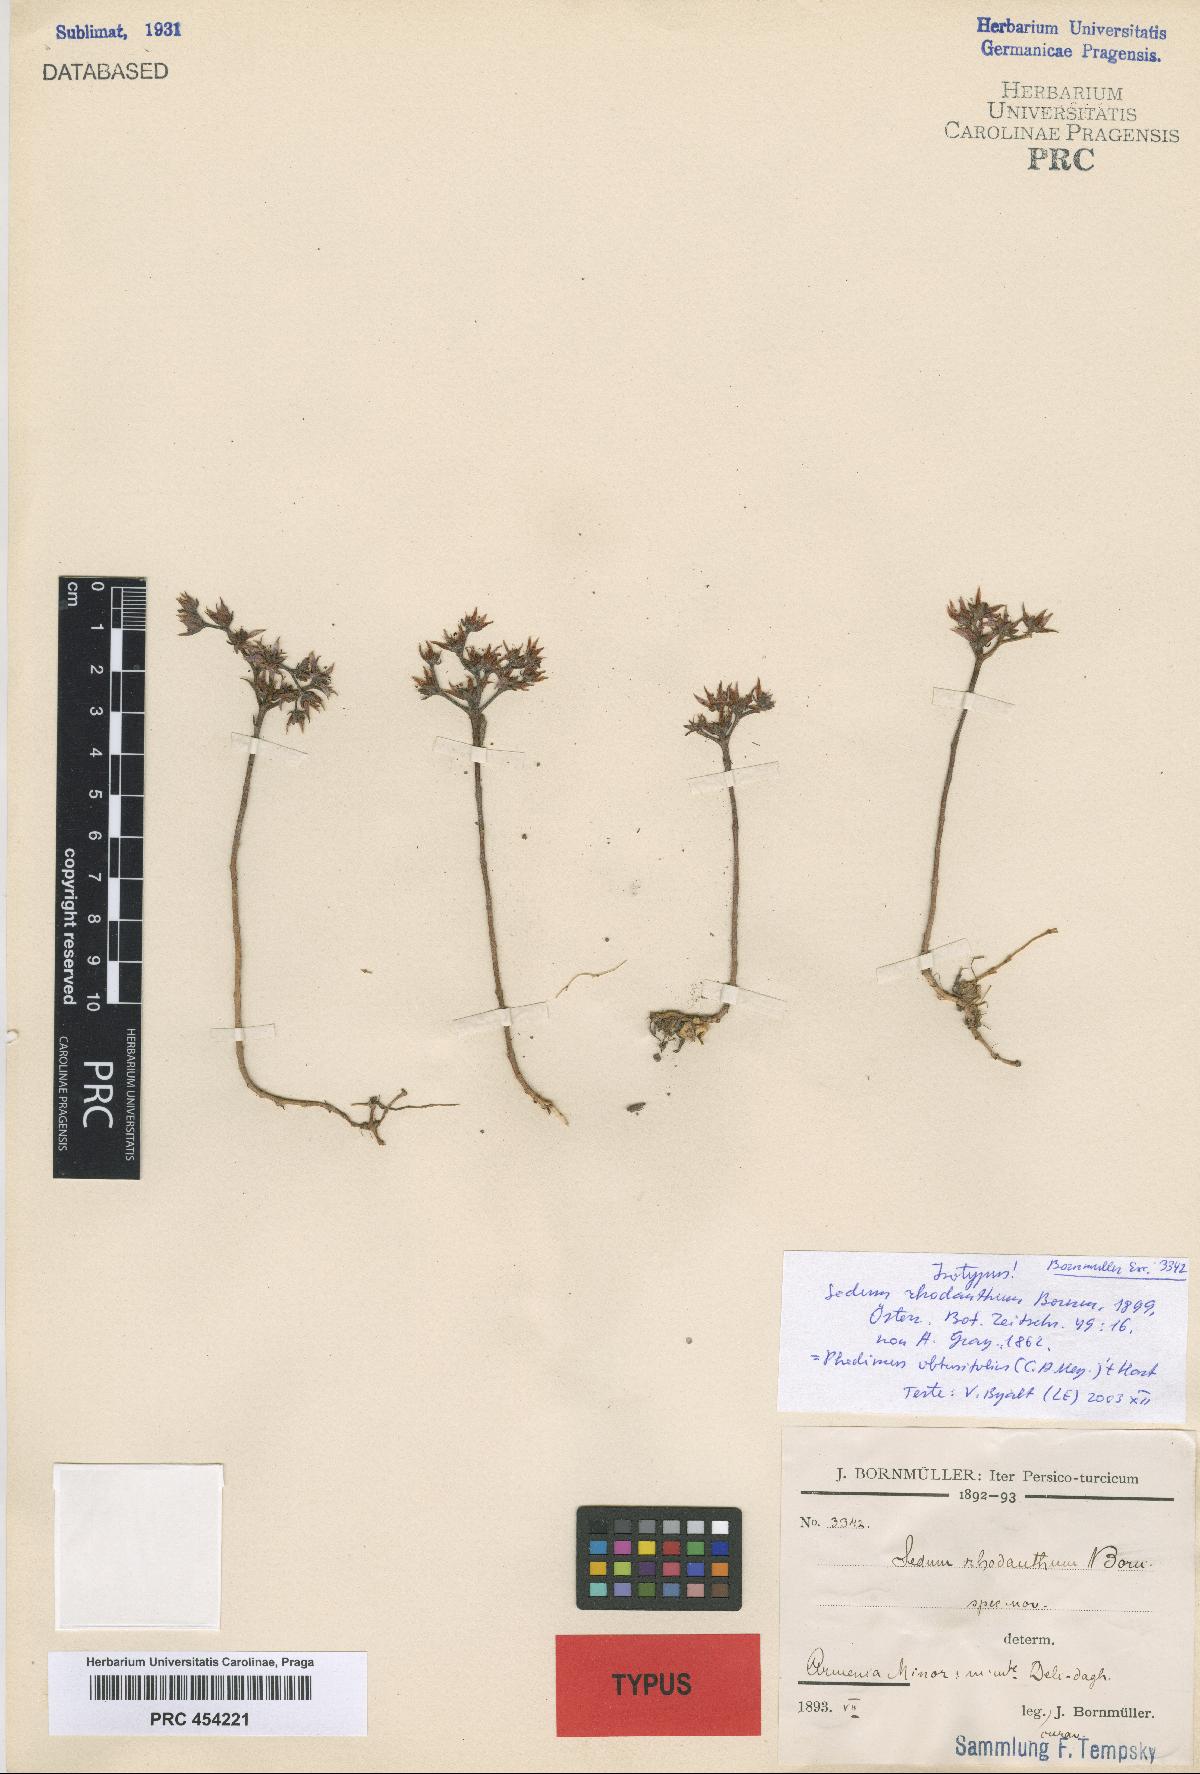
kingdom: Plantae
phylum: Tracheophyta
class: Magnoliopsida
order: Saxifragales
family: Crassulaceae
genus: Phedimus
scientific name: Phedimus obtusifolius
